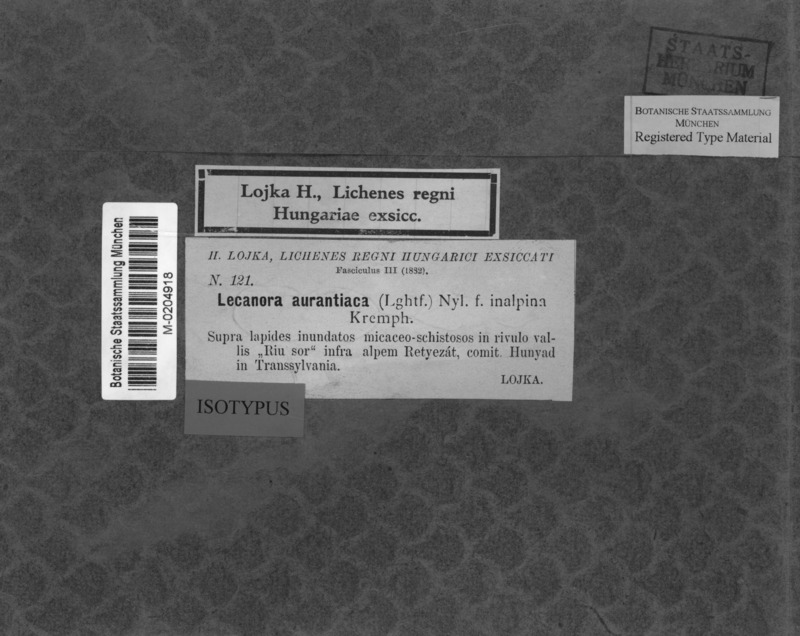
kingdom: Fungi
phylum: Ascomycota
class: Lecanoromycetes
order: Teloschistales
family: Teloschistaceae
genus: Caloplaca
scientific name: Caloplaca
